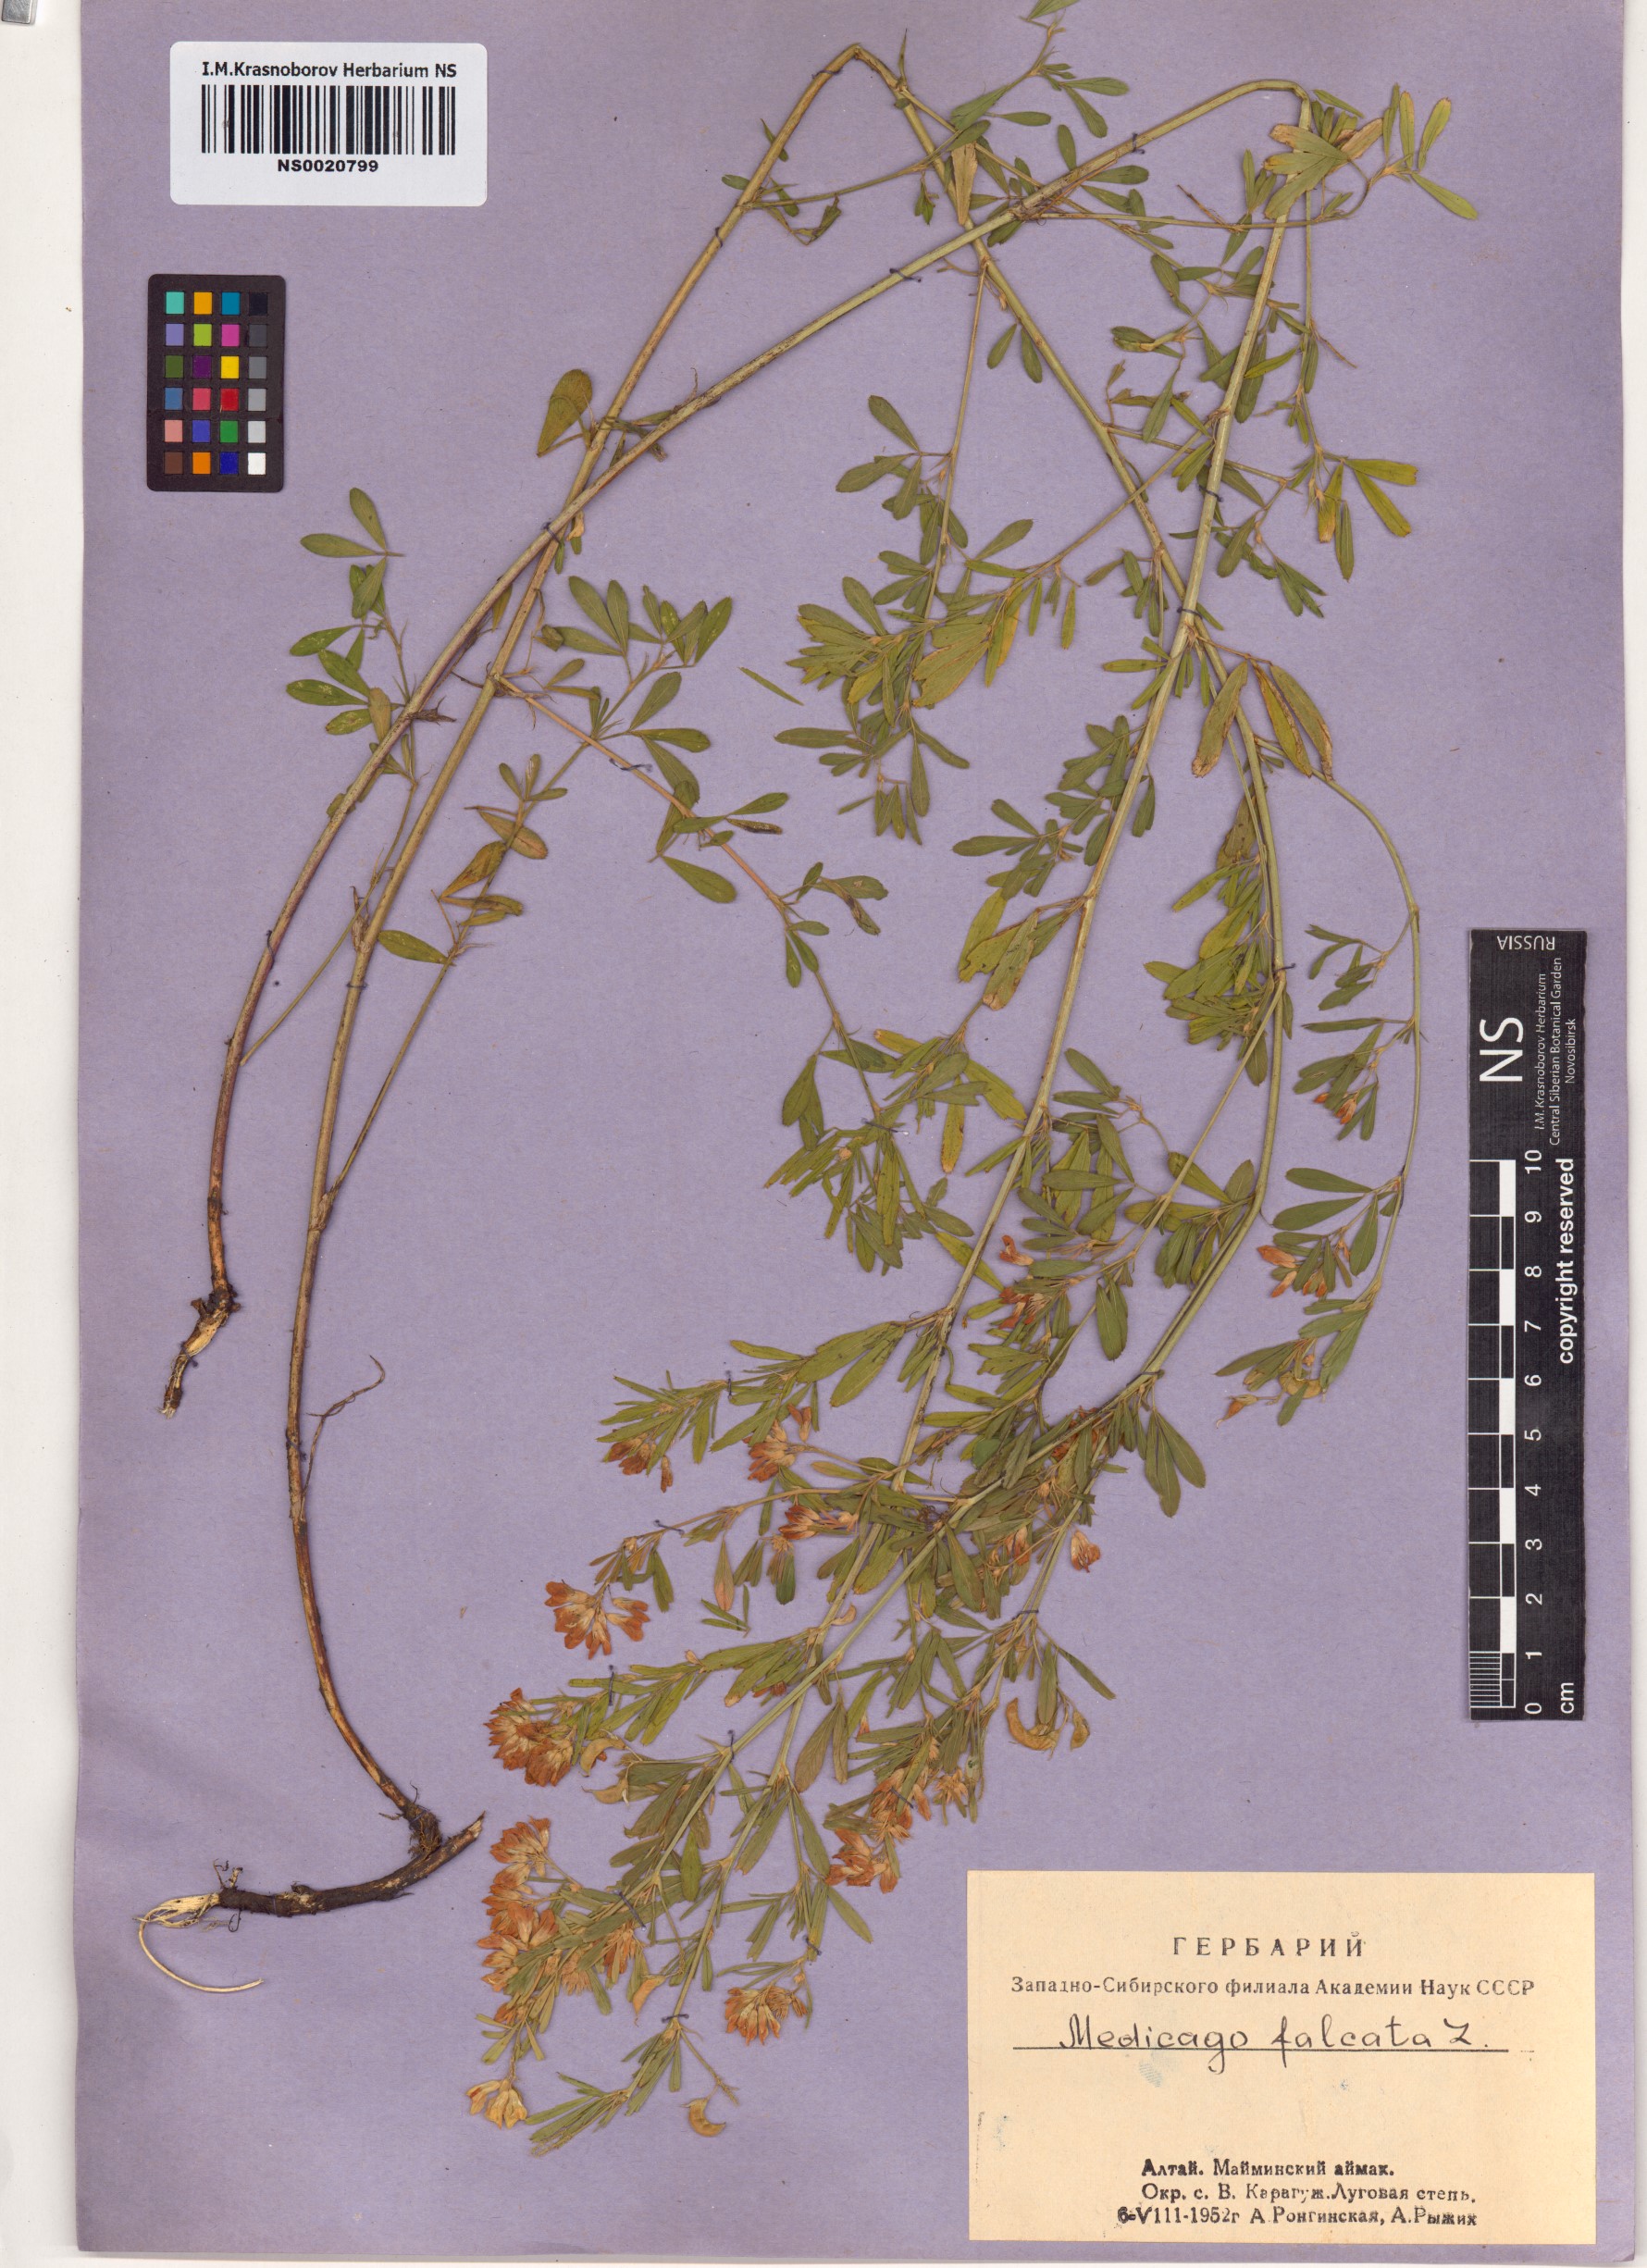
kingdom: Plantae
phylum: Tracheophyta
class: Magnoliopsida
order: Fabales
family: Fabaceae
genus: Medicago
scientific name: Medicago falcata
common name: Sickle medick
